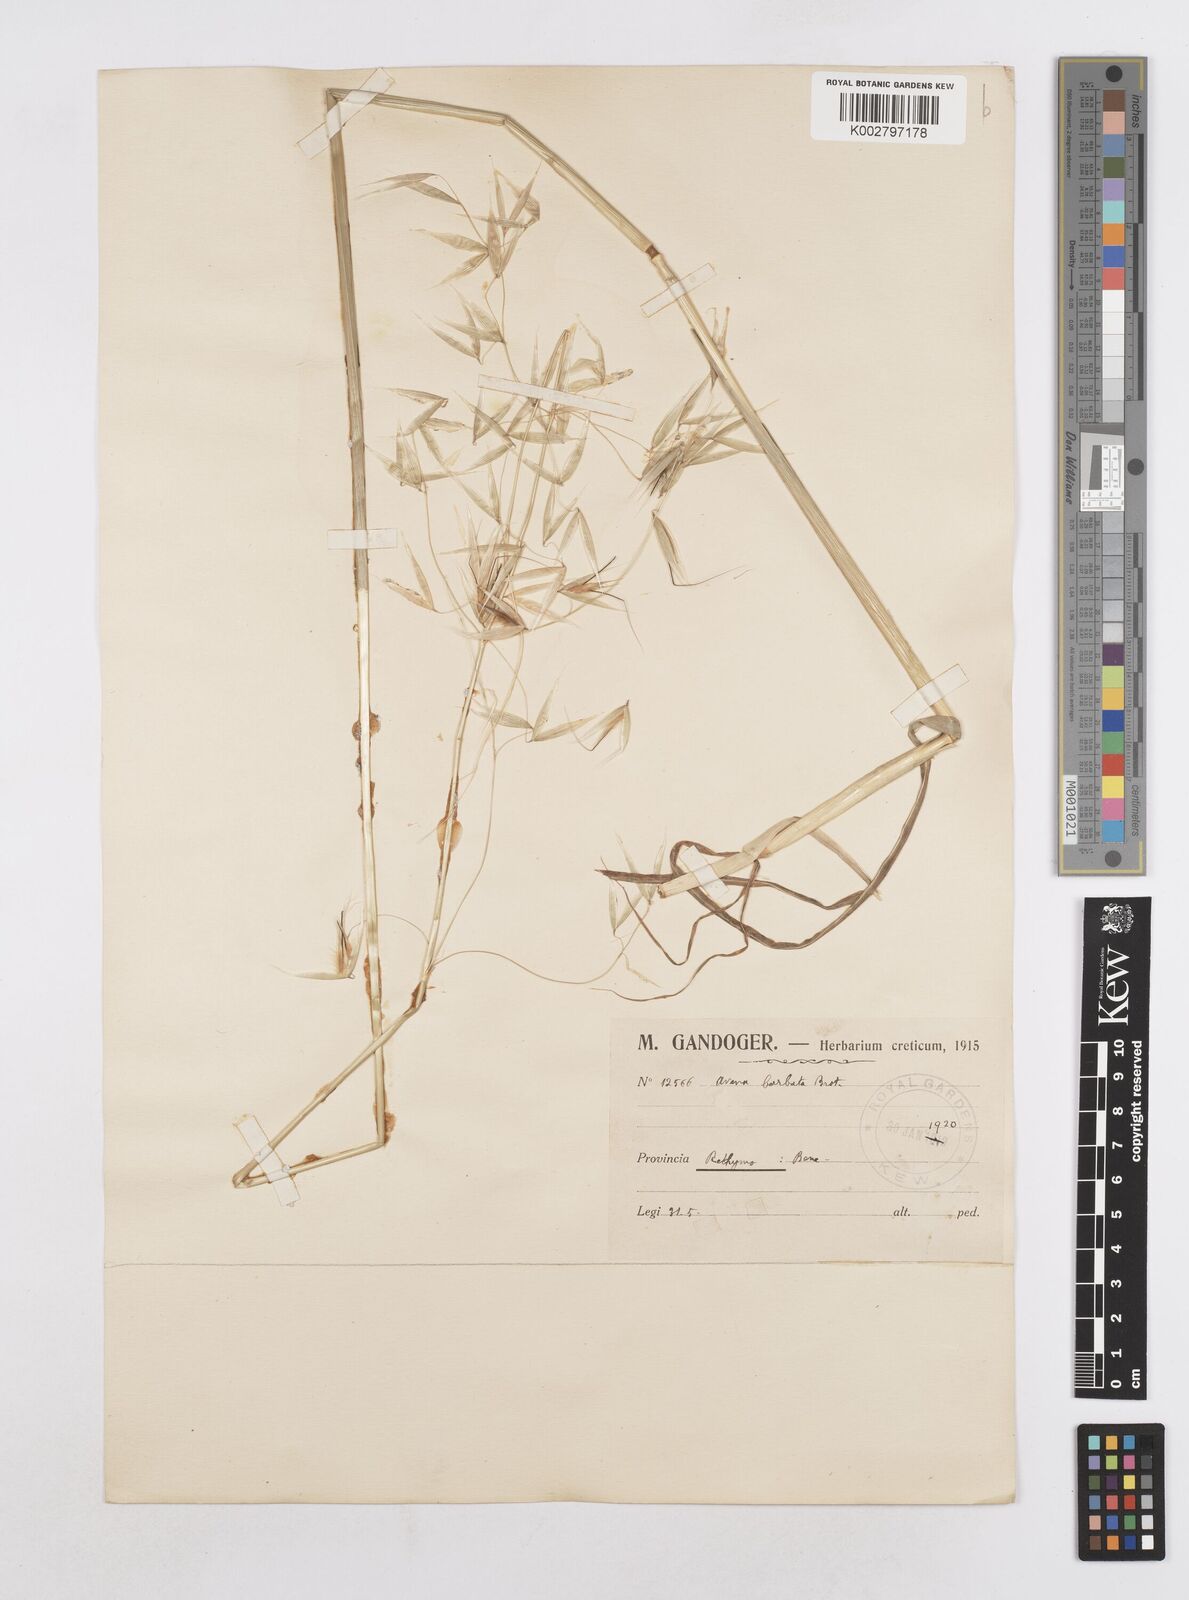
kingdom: Plantae
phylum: Tracheophyta
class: Liliopsida
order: Poales
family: Poaceae
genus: Avena
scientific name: Avena
